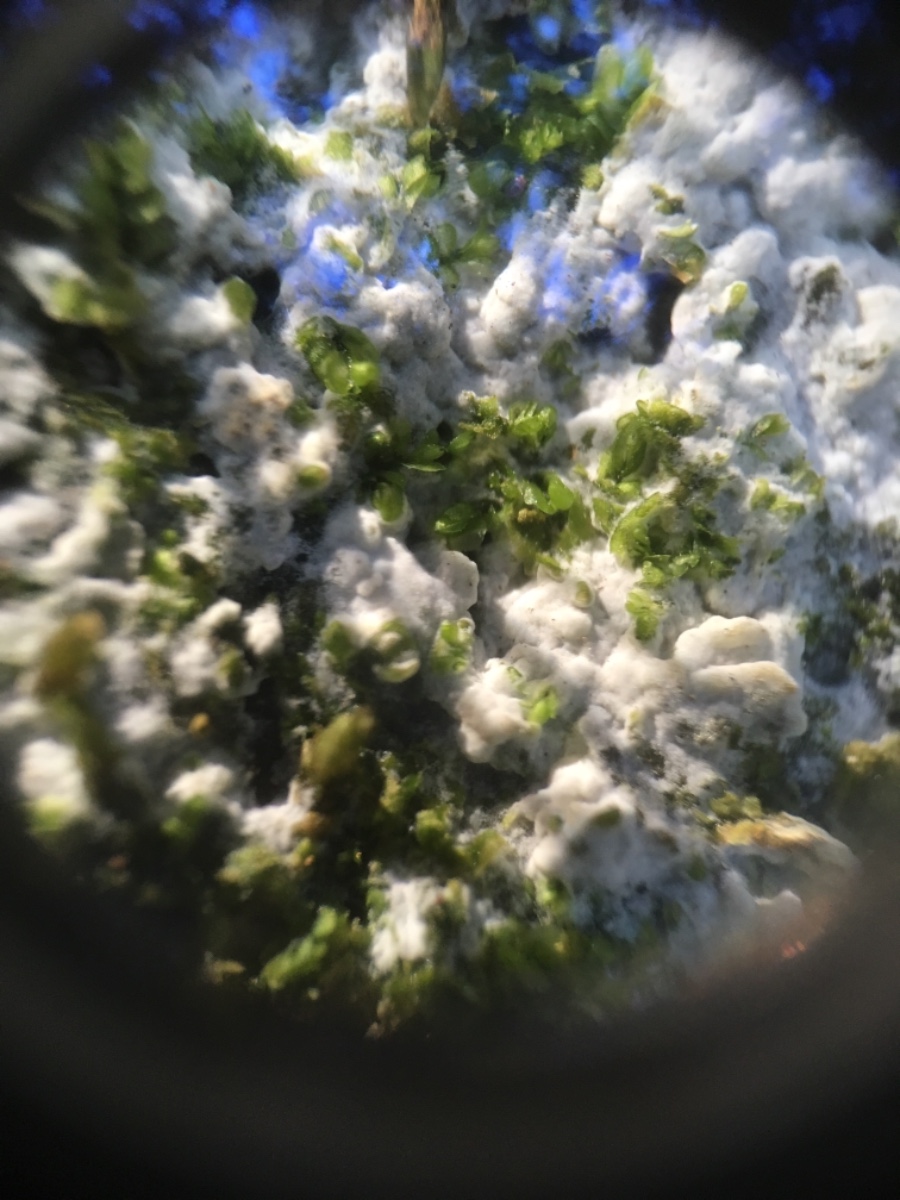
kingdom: Fungi
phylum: Basidiomycota
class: Agaricomycetes
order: Corticiales
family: Corticiaceae
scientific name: Corticiaceae
